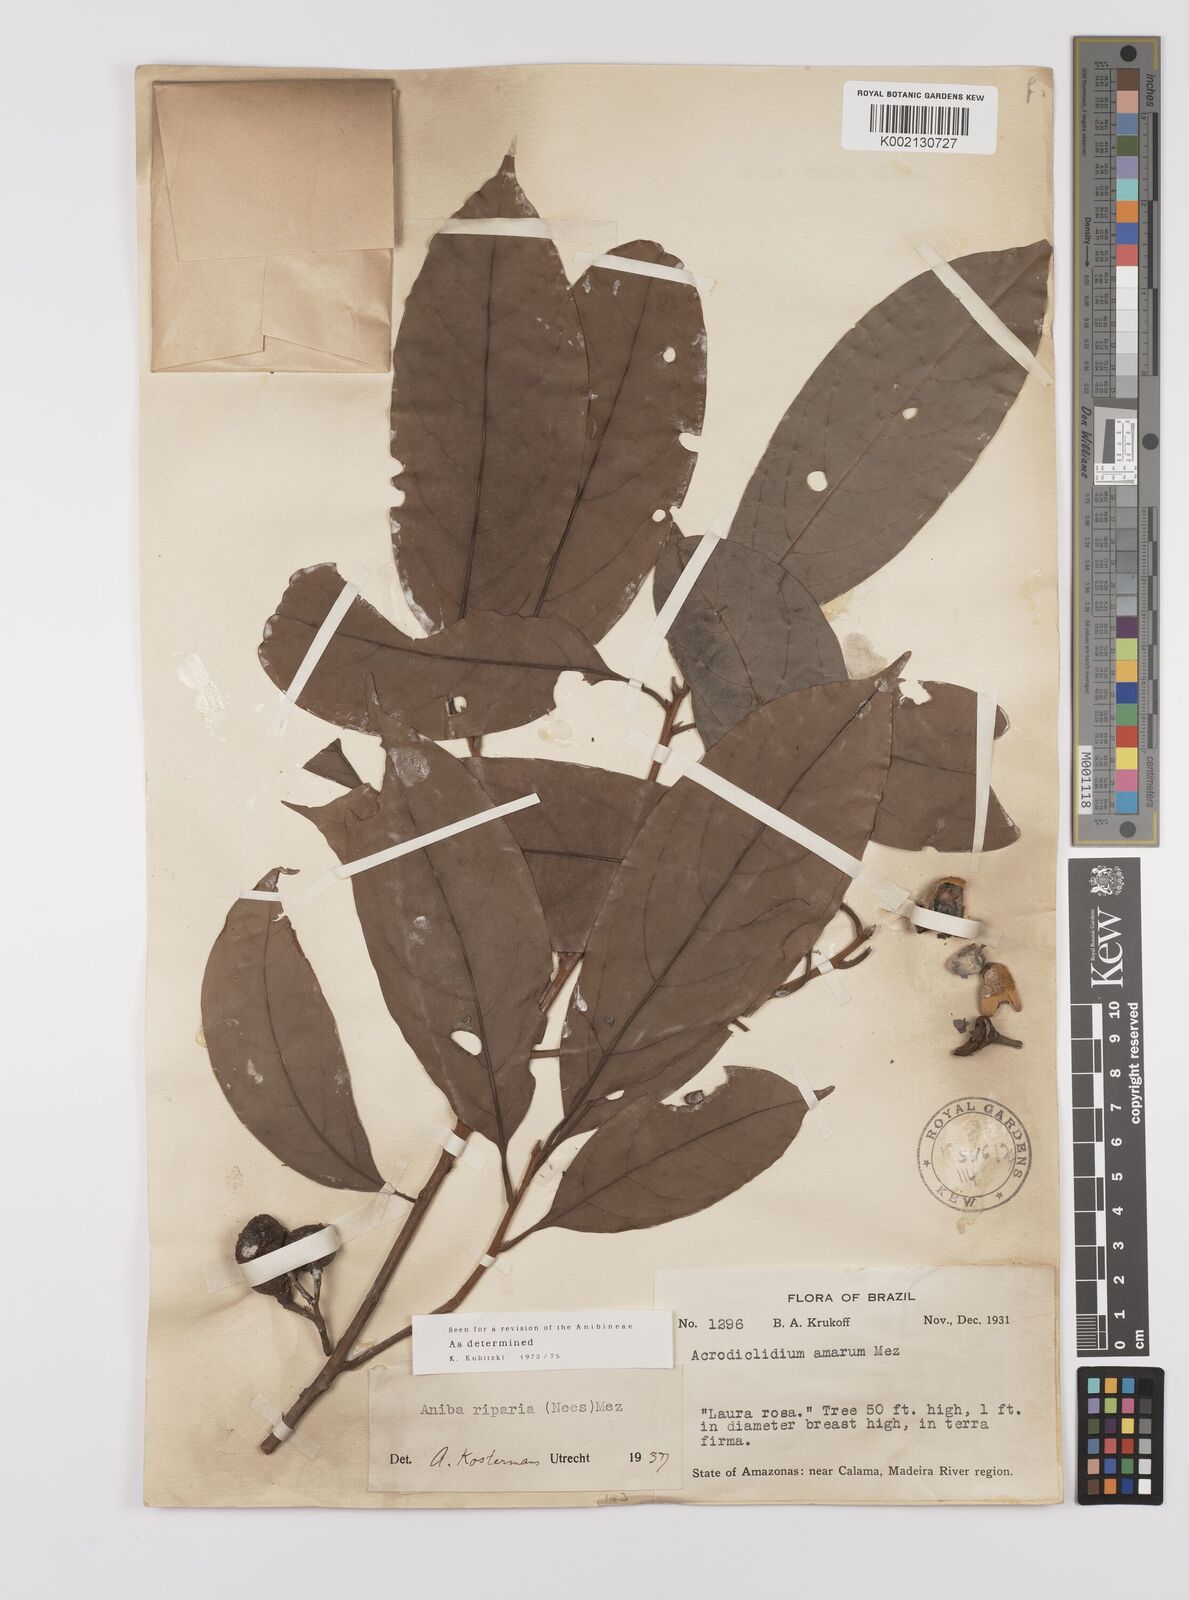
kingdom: Plantae
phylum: Tracheophyta
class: Magnoliopsida
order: Laurales
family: Lauraceae
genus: Aniba
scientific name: Aniba riparia
